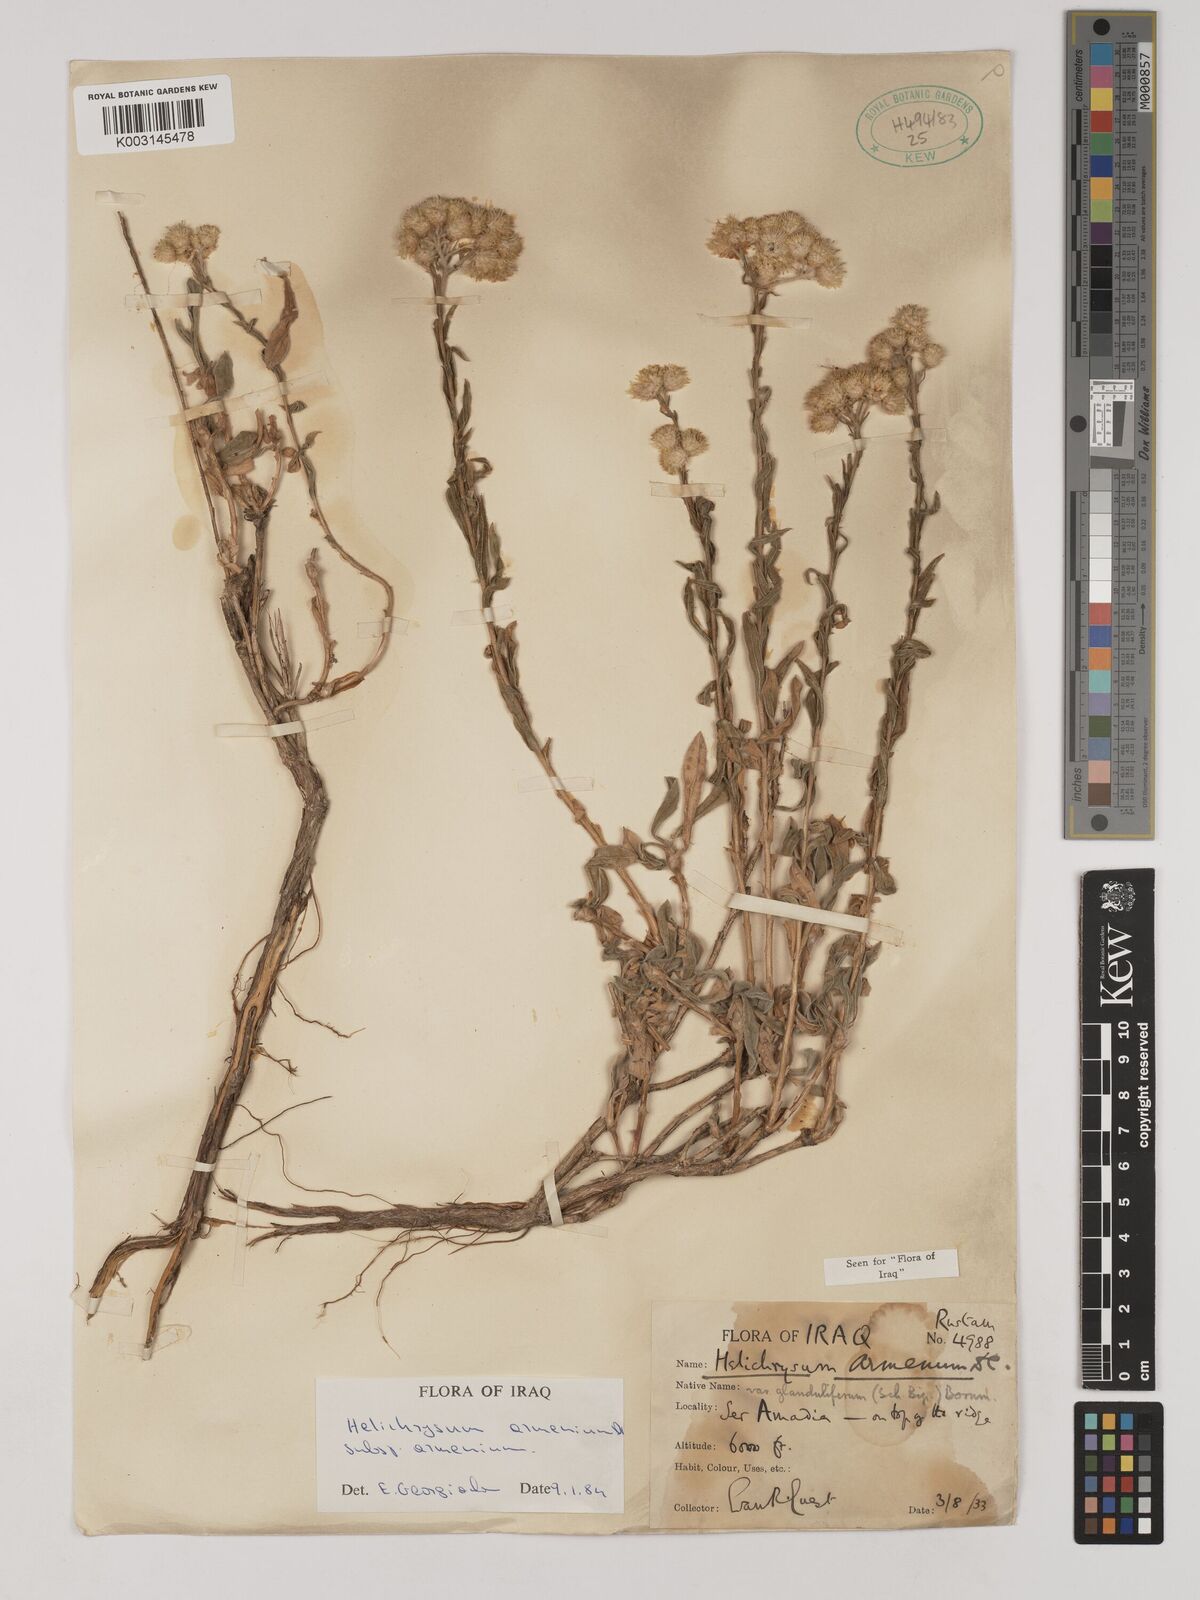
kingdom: Plantae
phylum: Tracheophyta
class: Magnoliopsida
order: Asterales
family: Asteraceae
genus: Helichrysum
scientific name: Helichrysum armenium
